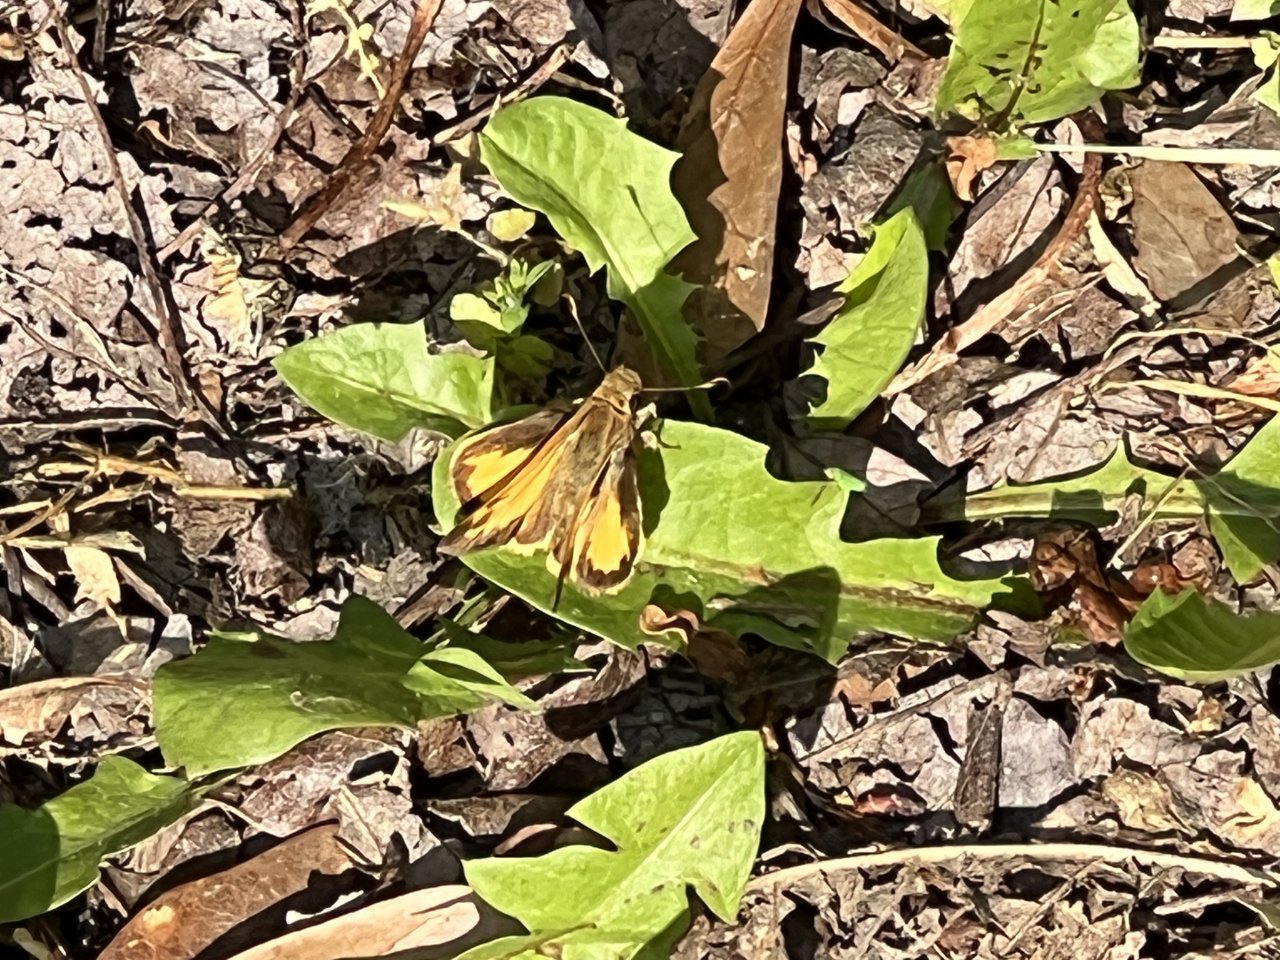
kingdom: Animalia
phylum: Arthropoda
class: Insecta
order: Lepidoptera
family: Hesperiidae
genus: Lon
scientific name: Lon zabulon
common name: Zabulon Skipper
